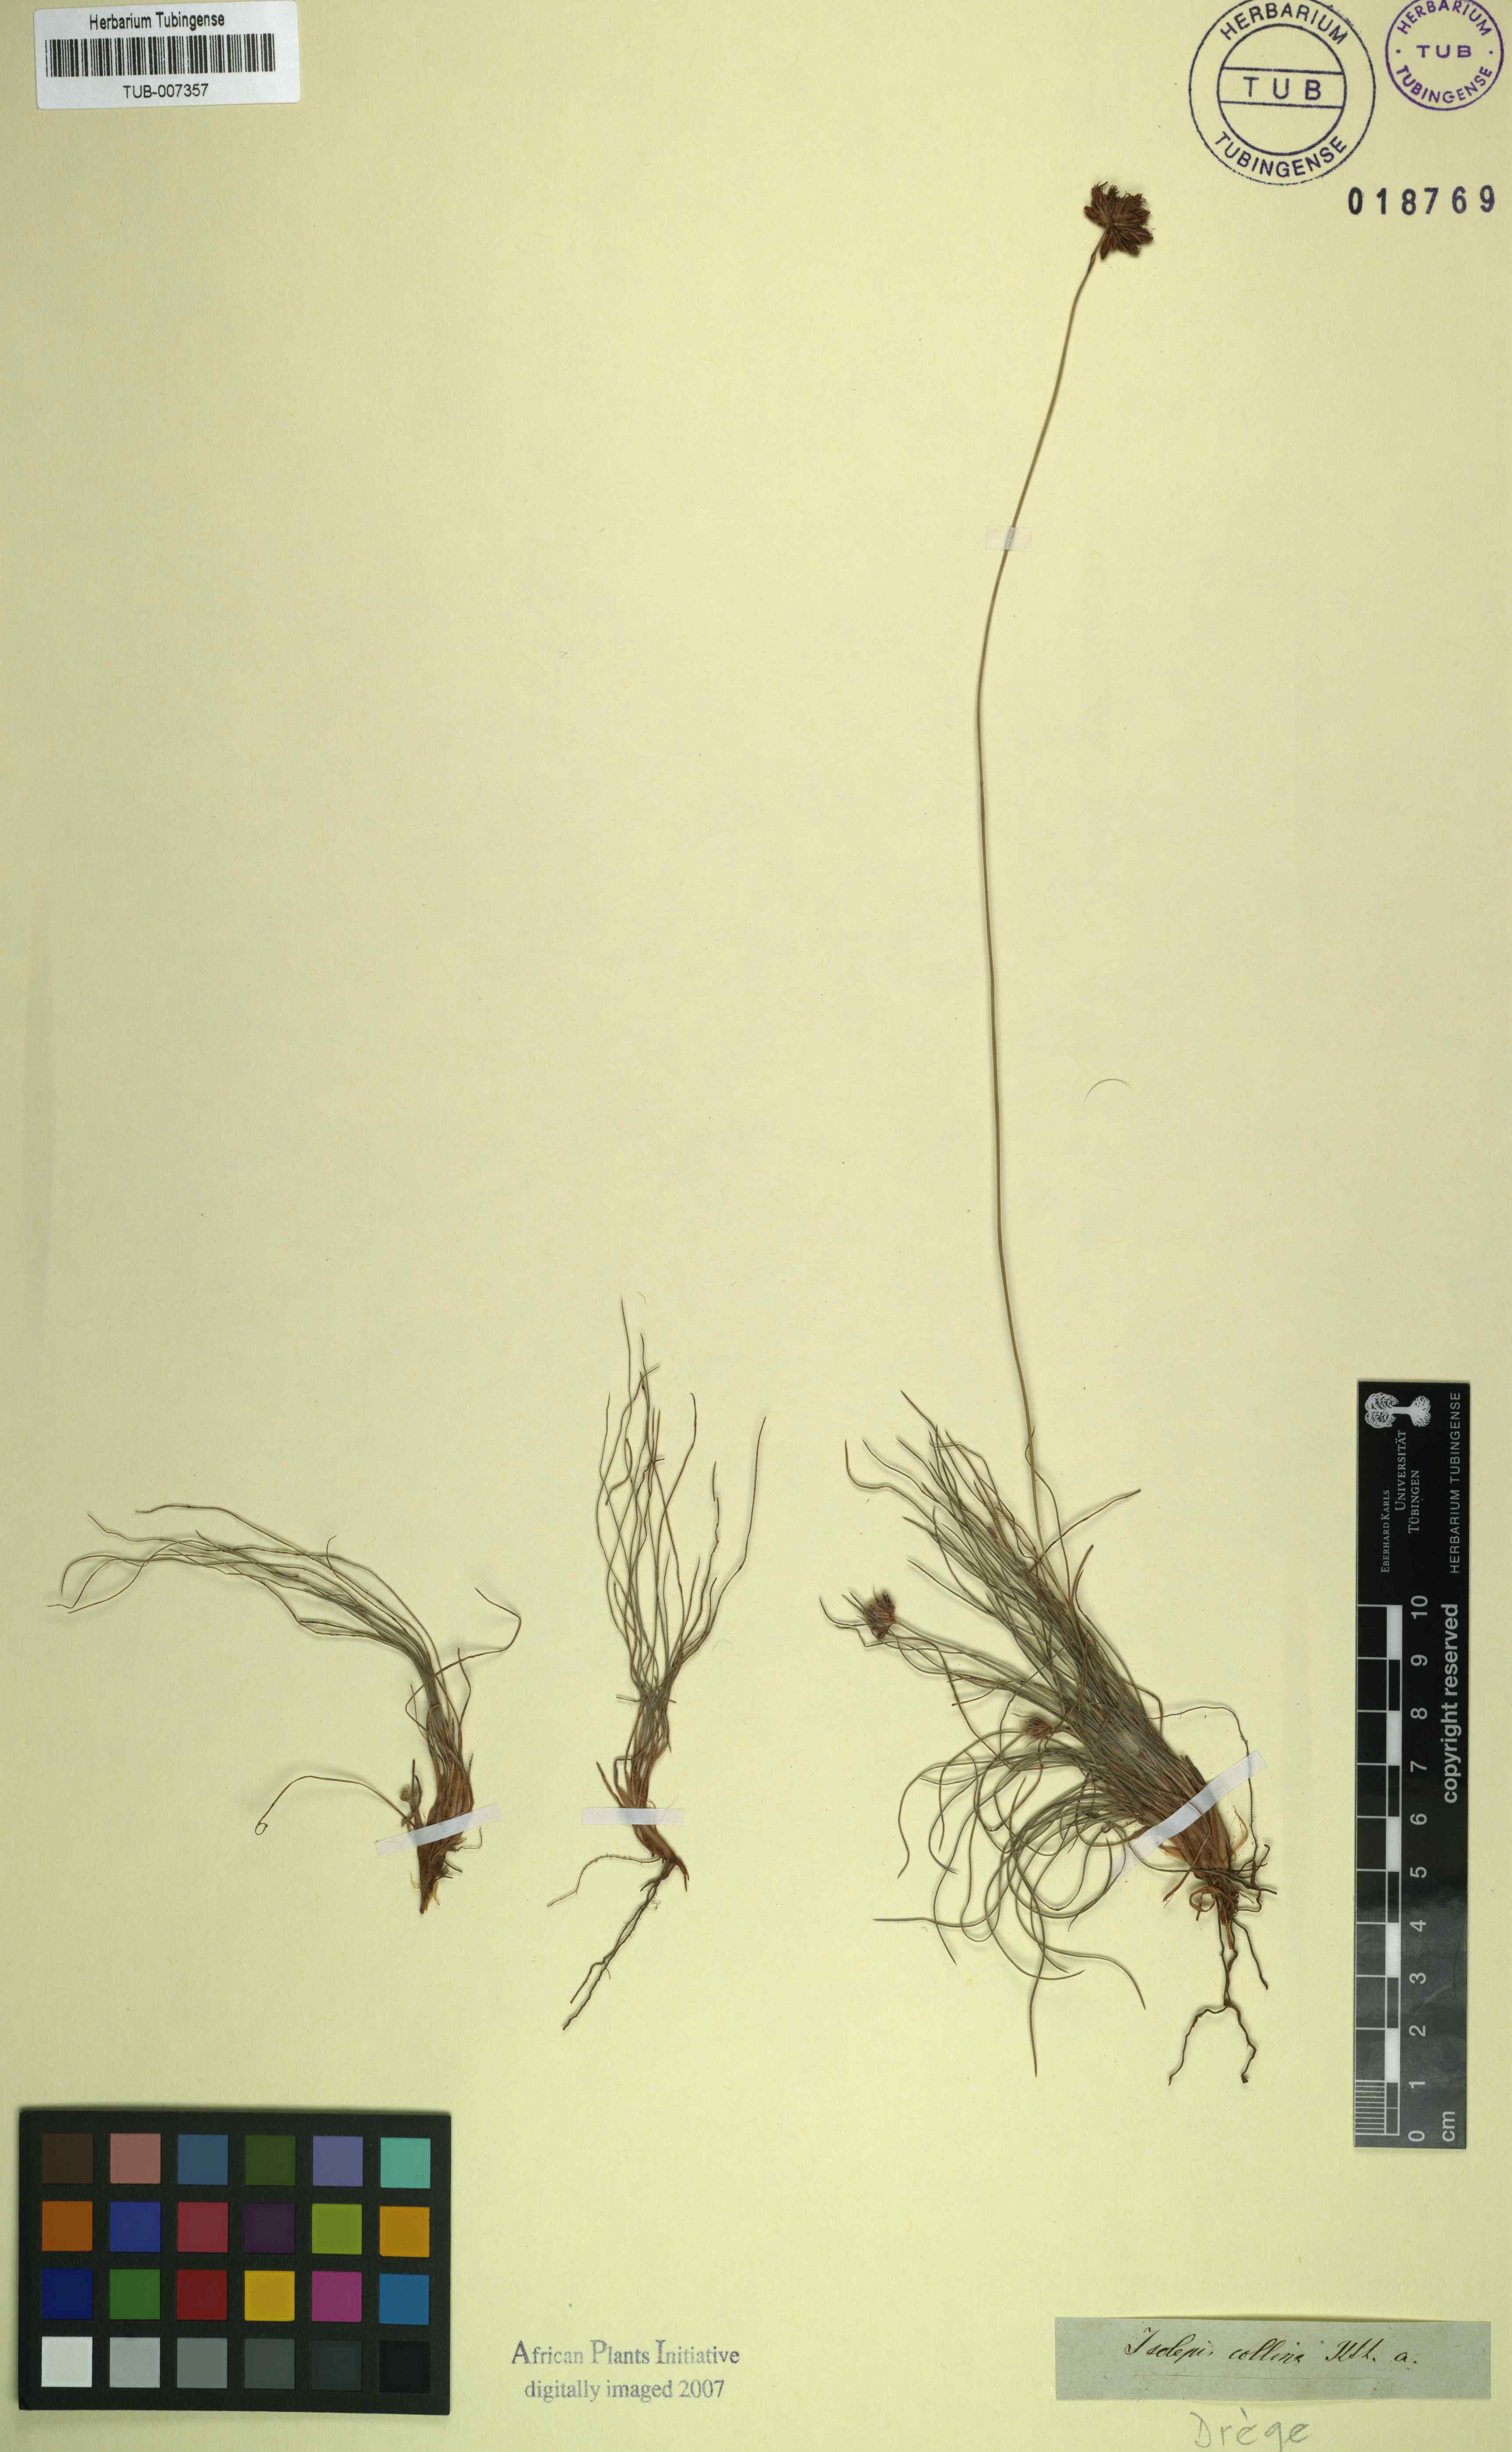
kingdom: Plantae
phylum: Tracheophyta
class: Liliopsida
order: Poales
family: Cyperaceae
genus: Bulbostylis
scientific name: Bulbostylis contexta
